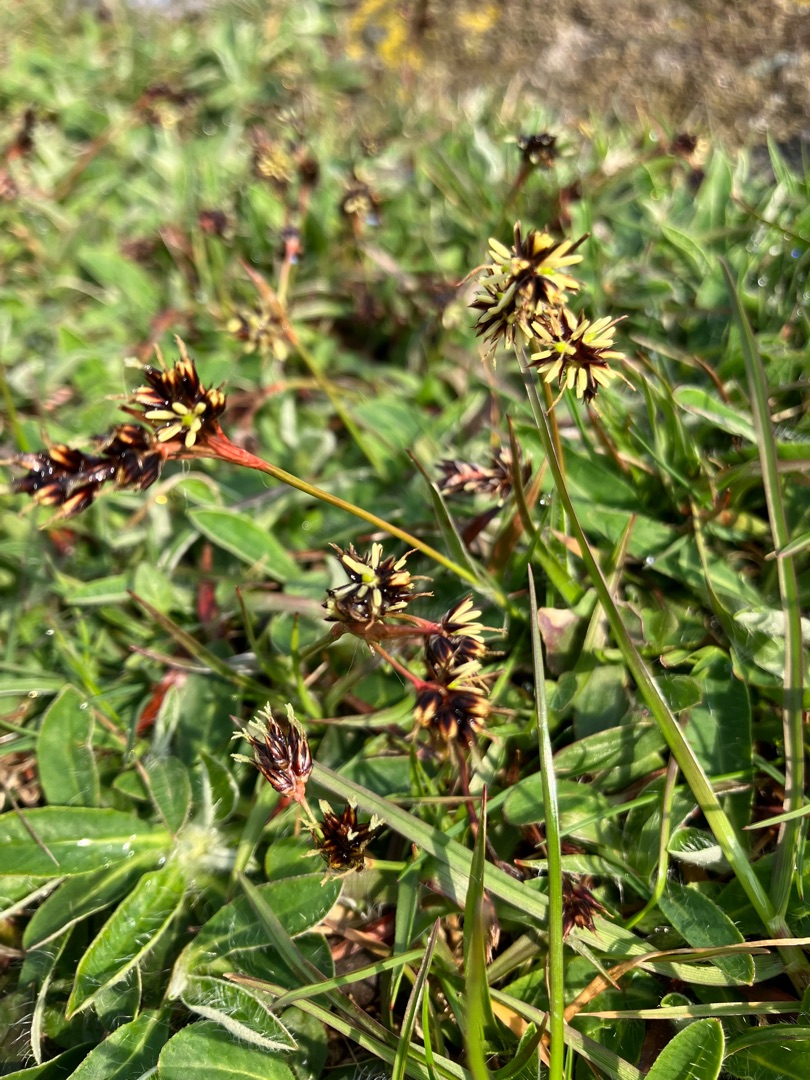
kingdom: Plantae
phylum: Tracheophyta
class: Liliopsida
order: Poales
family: Juncaceae
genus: Luzula
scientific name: Luzula campestris
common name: Mark-frytle
